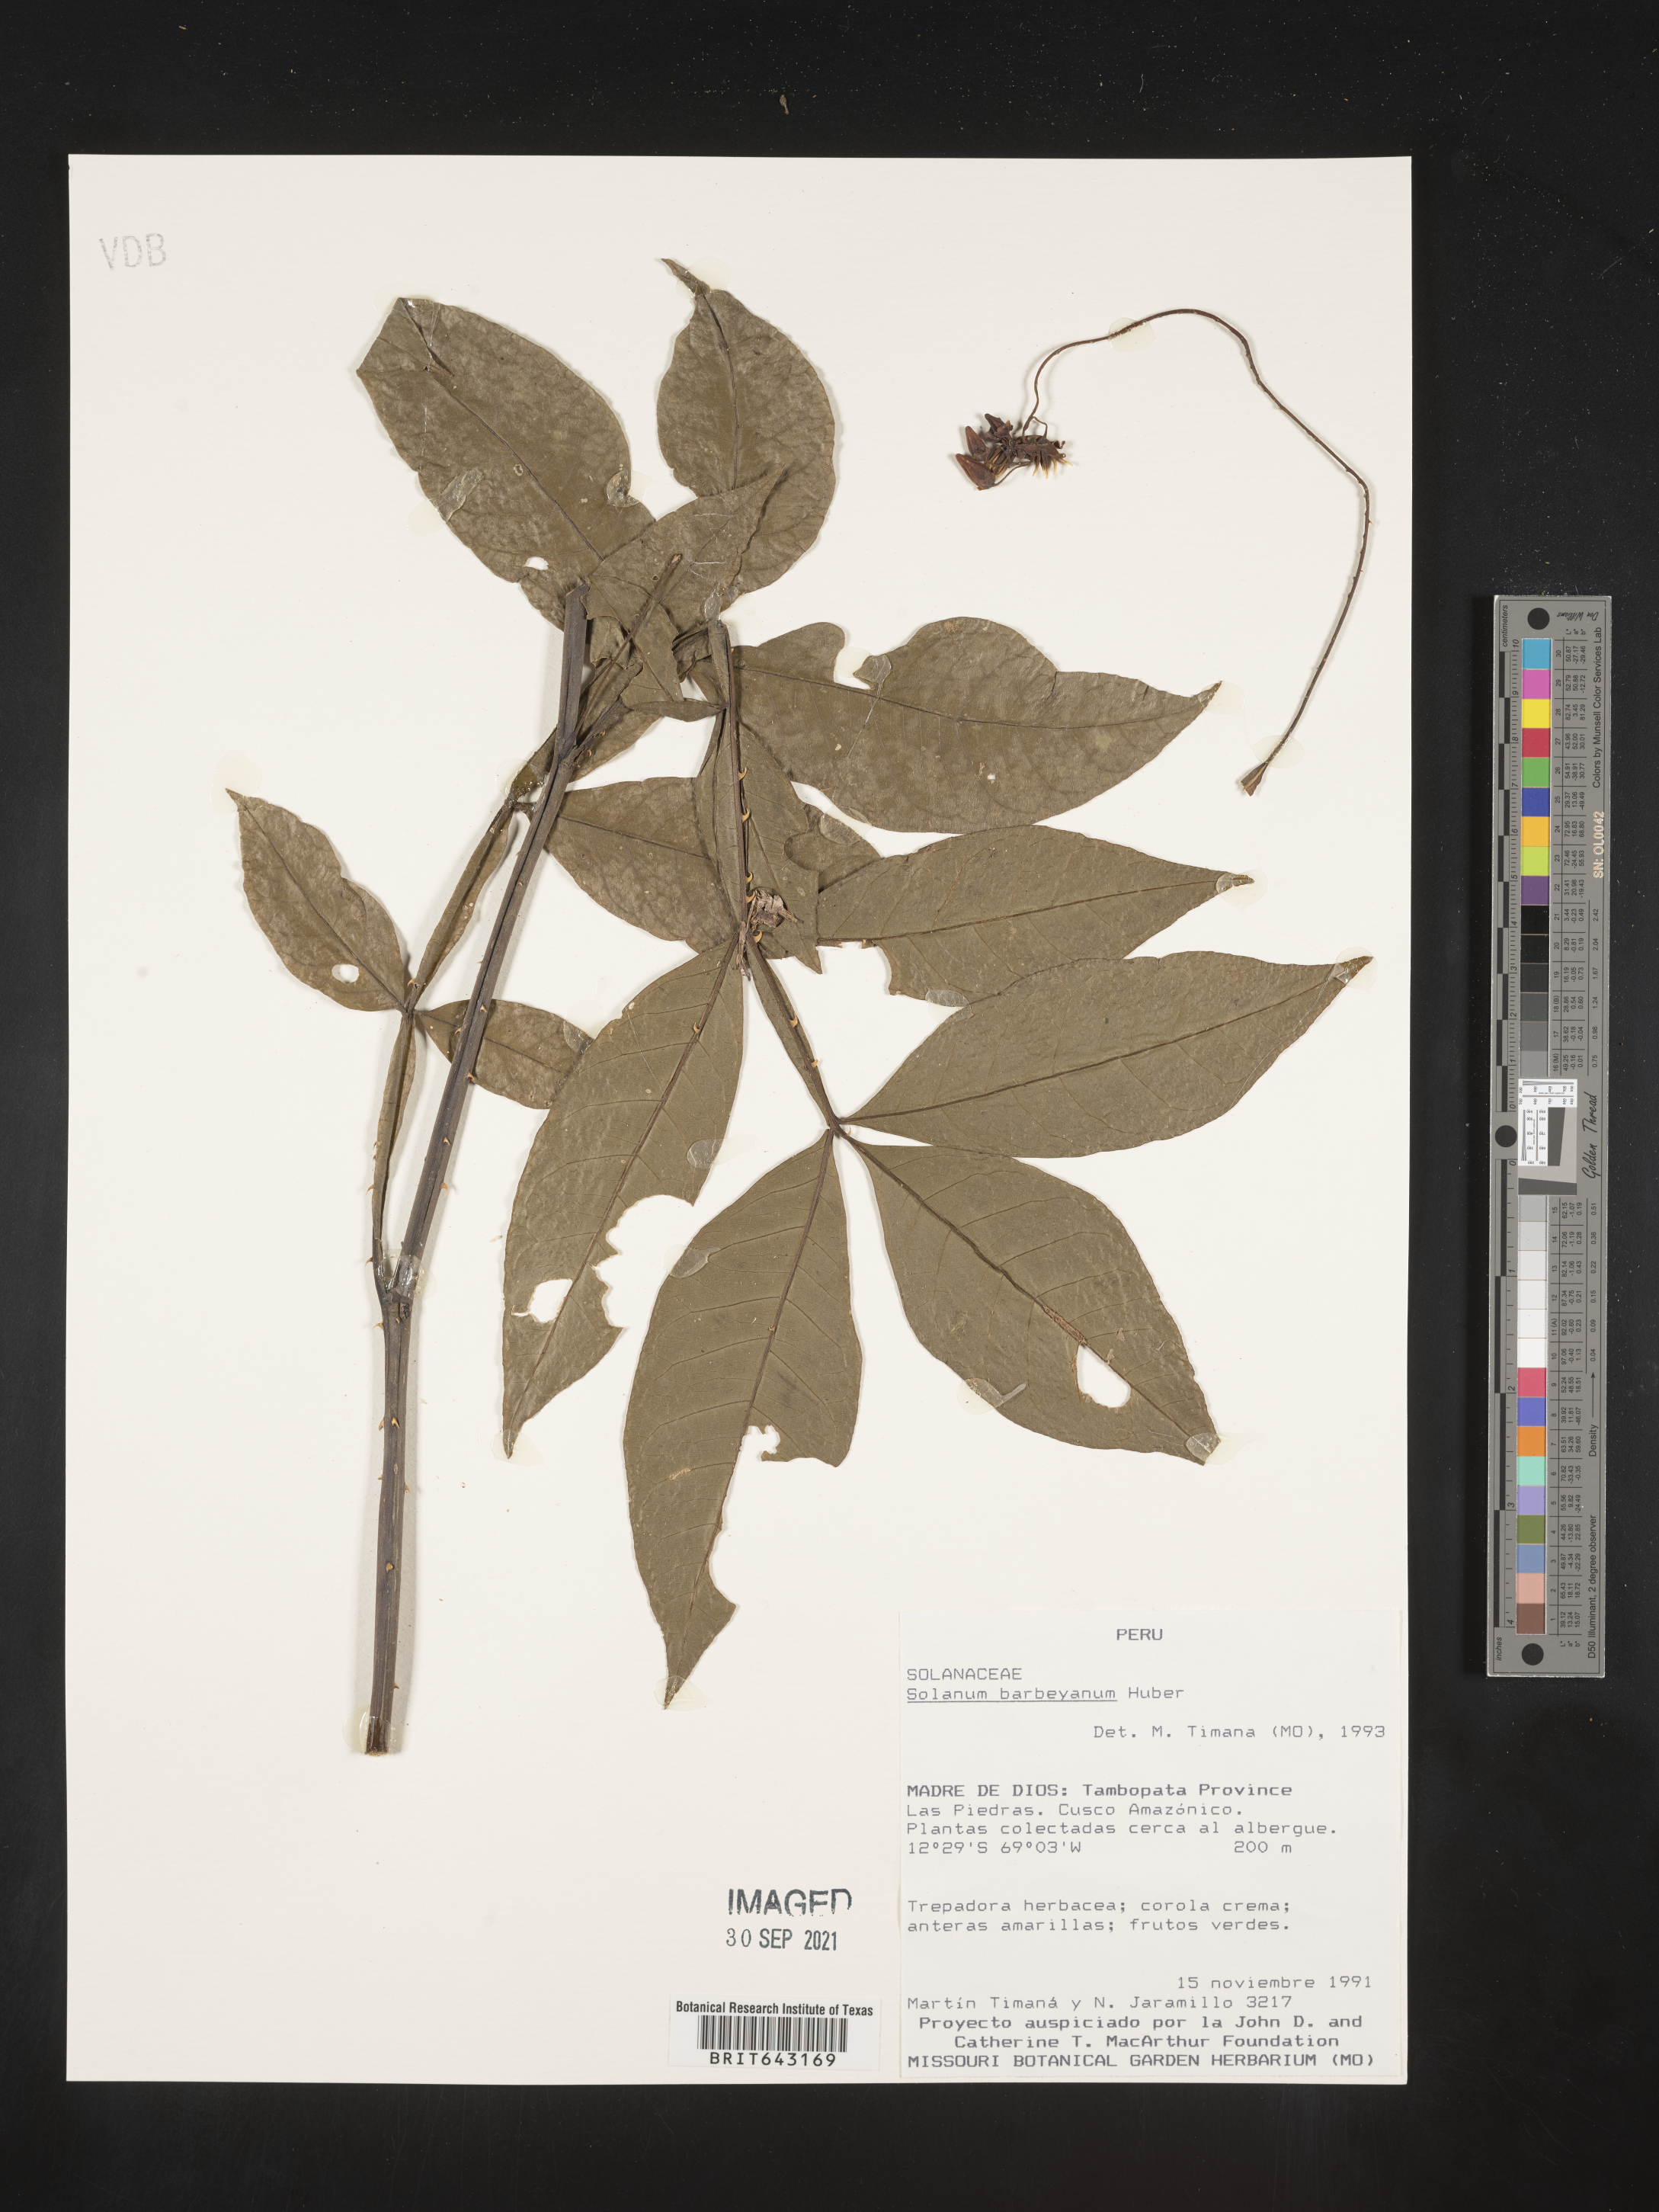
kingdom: Plantae
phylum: Tracheophyta
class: Magnoliopsida
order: Solanales
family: Solanaceae
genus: Solanum
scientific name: Solanum
